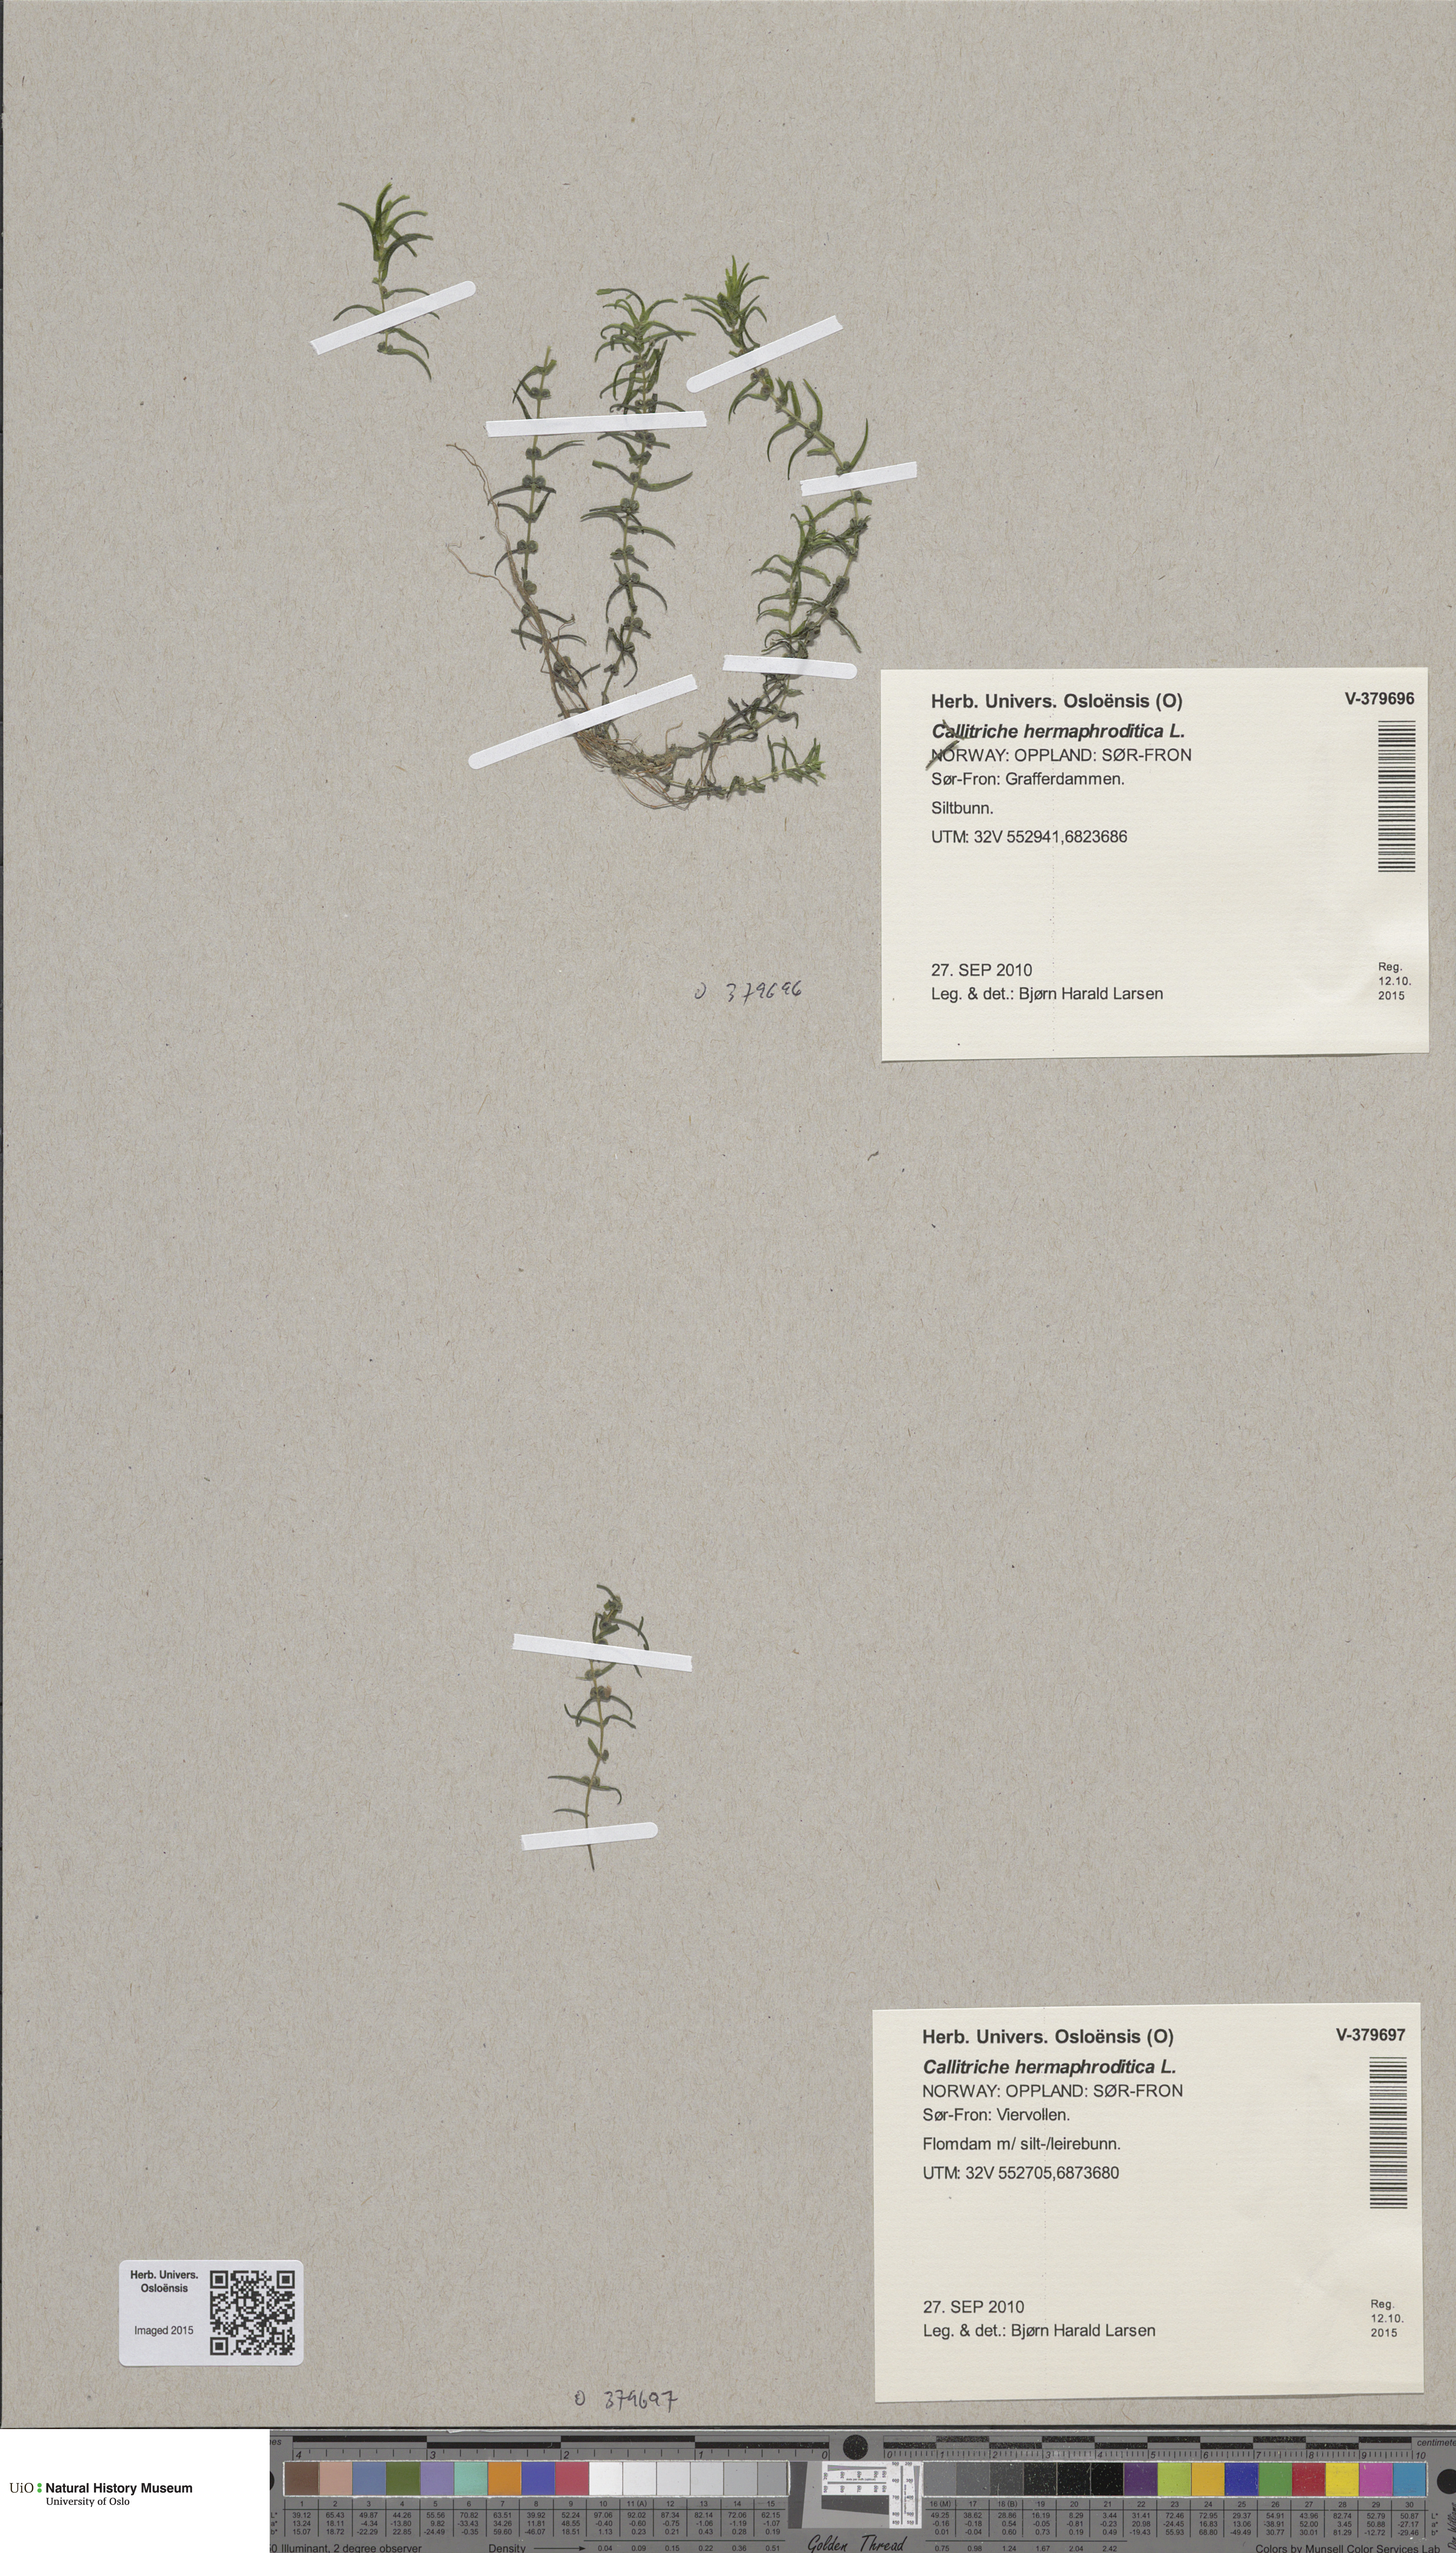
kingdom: Plantae
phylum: Tracheophyta
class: Magnoliopsida
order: Lamiales
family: Plantaginaceae
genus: Callitriche
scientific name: Callitriche hermaphroditica
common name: Autumnal water-starwort
